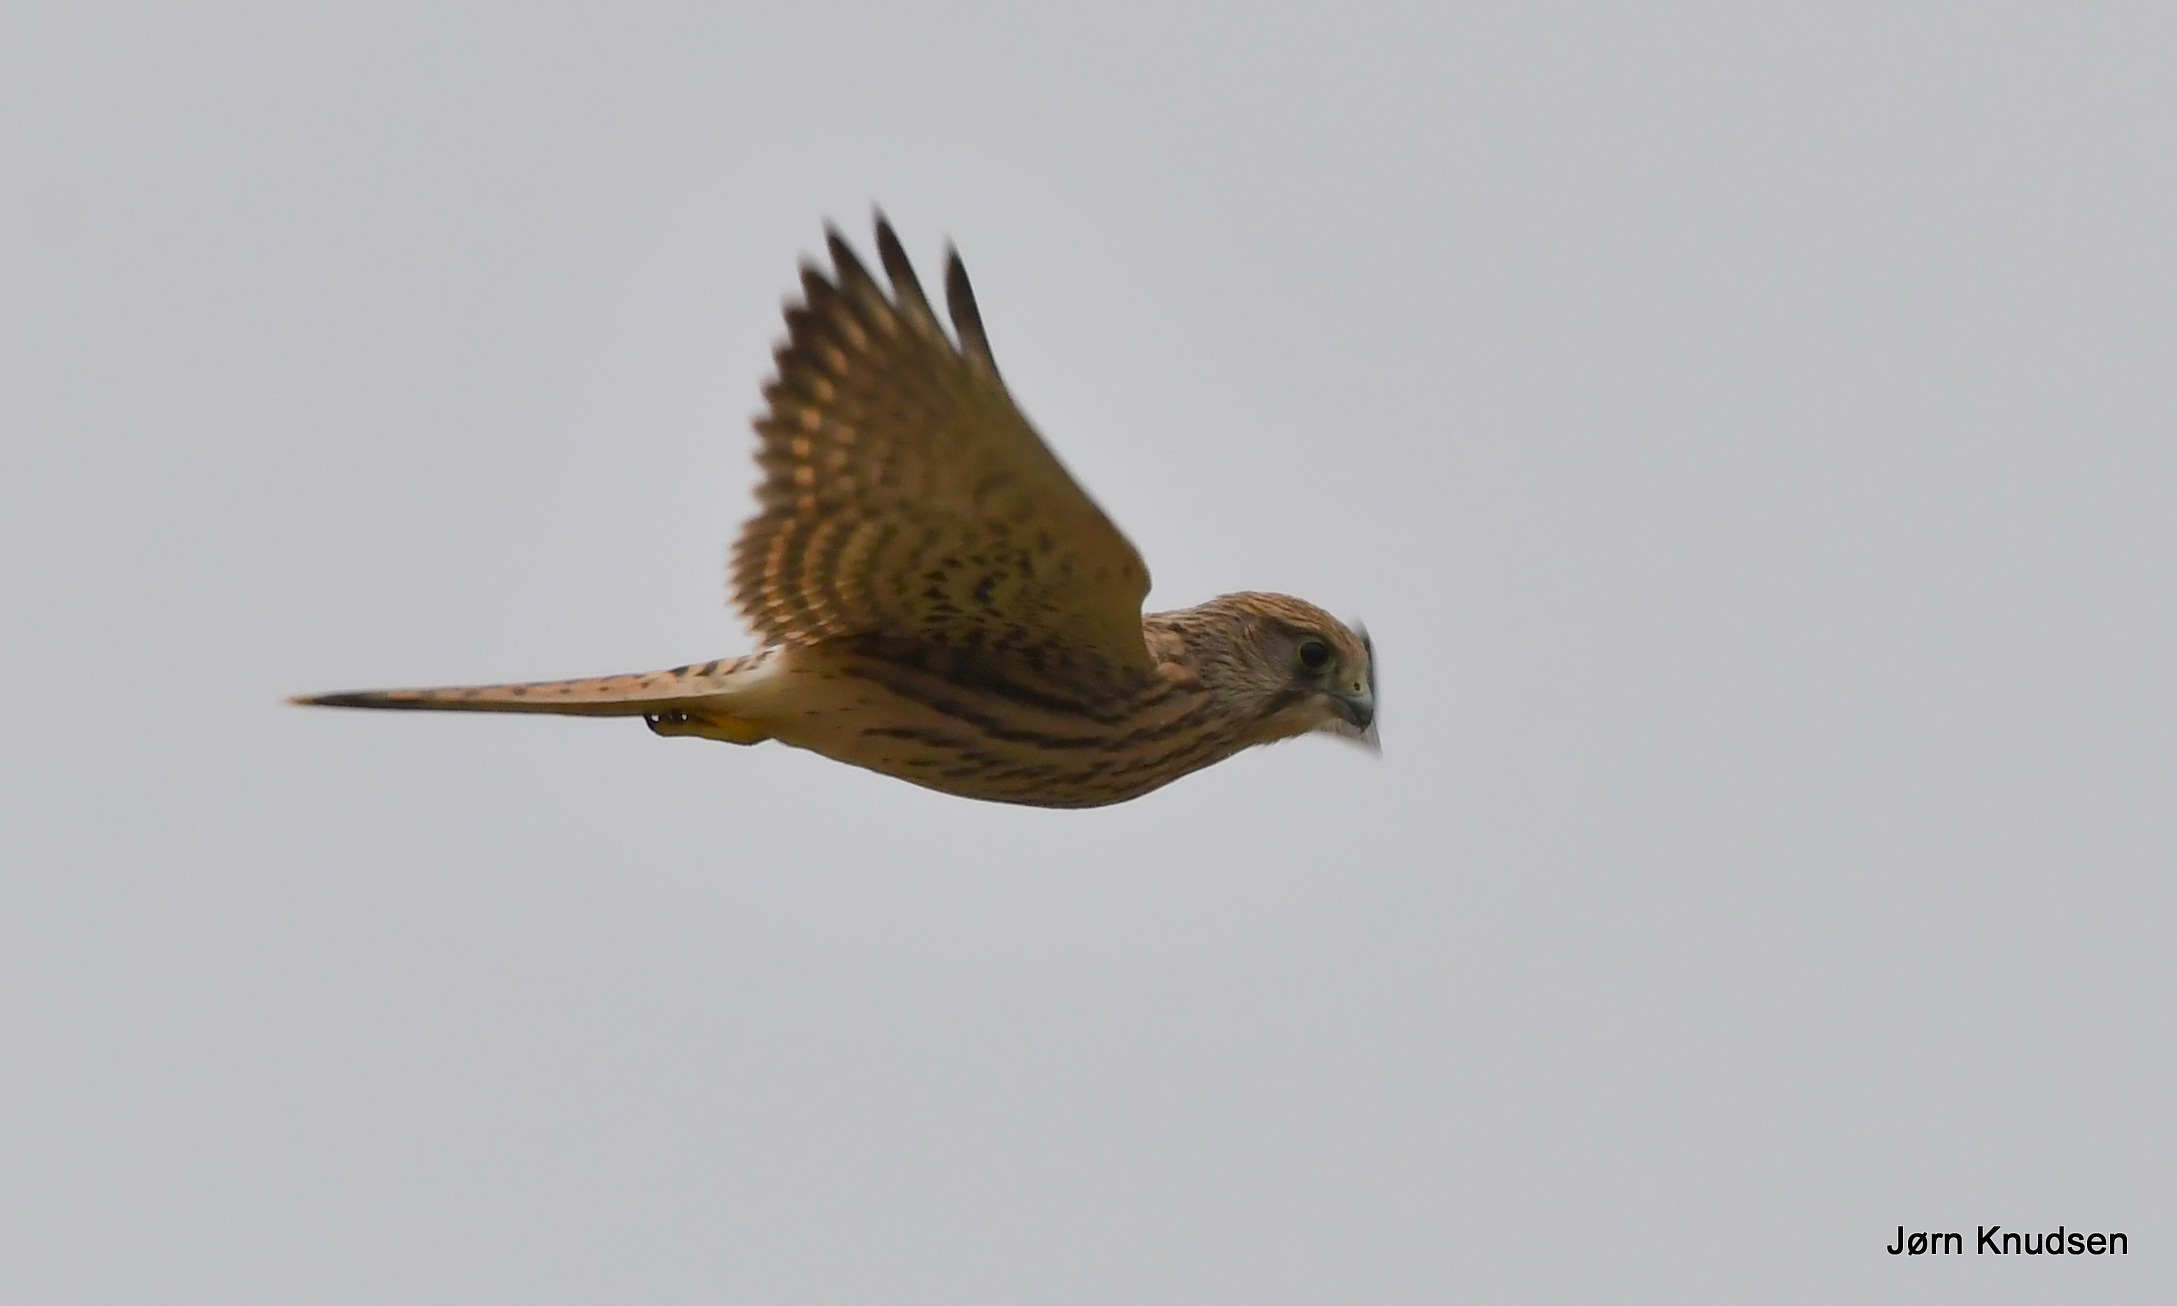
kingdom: Animalia
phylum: Chordata
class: Aves
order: Falconiformes
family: Falconidae
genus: Falco
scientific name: Falco tinnunculus
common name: Tårnfalk
